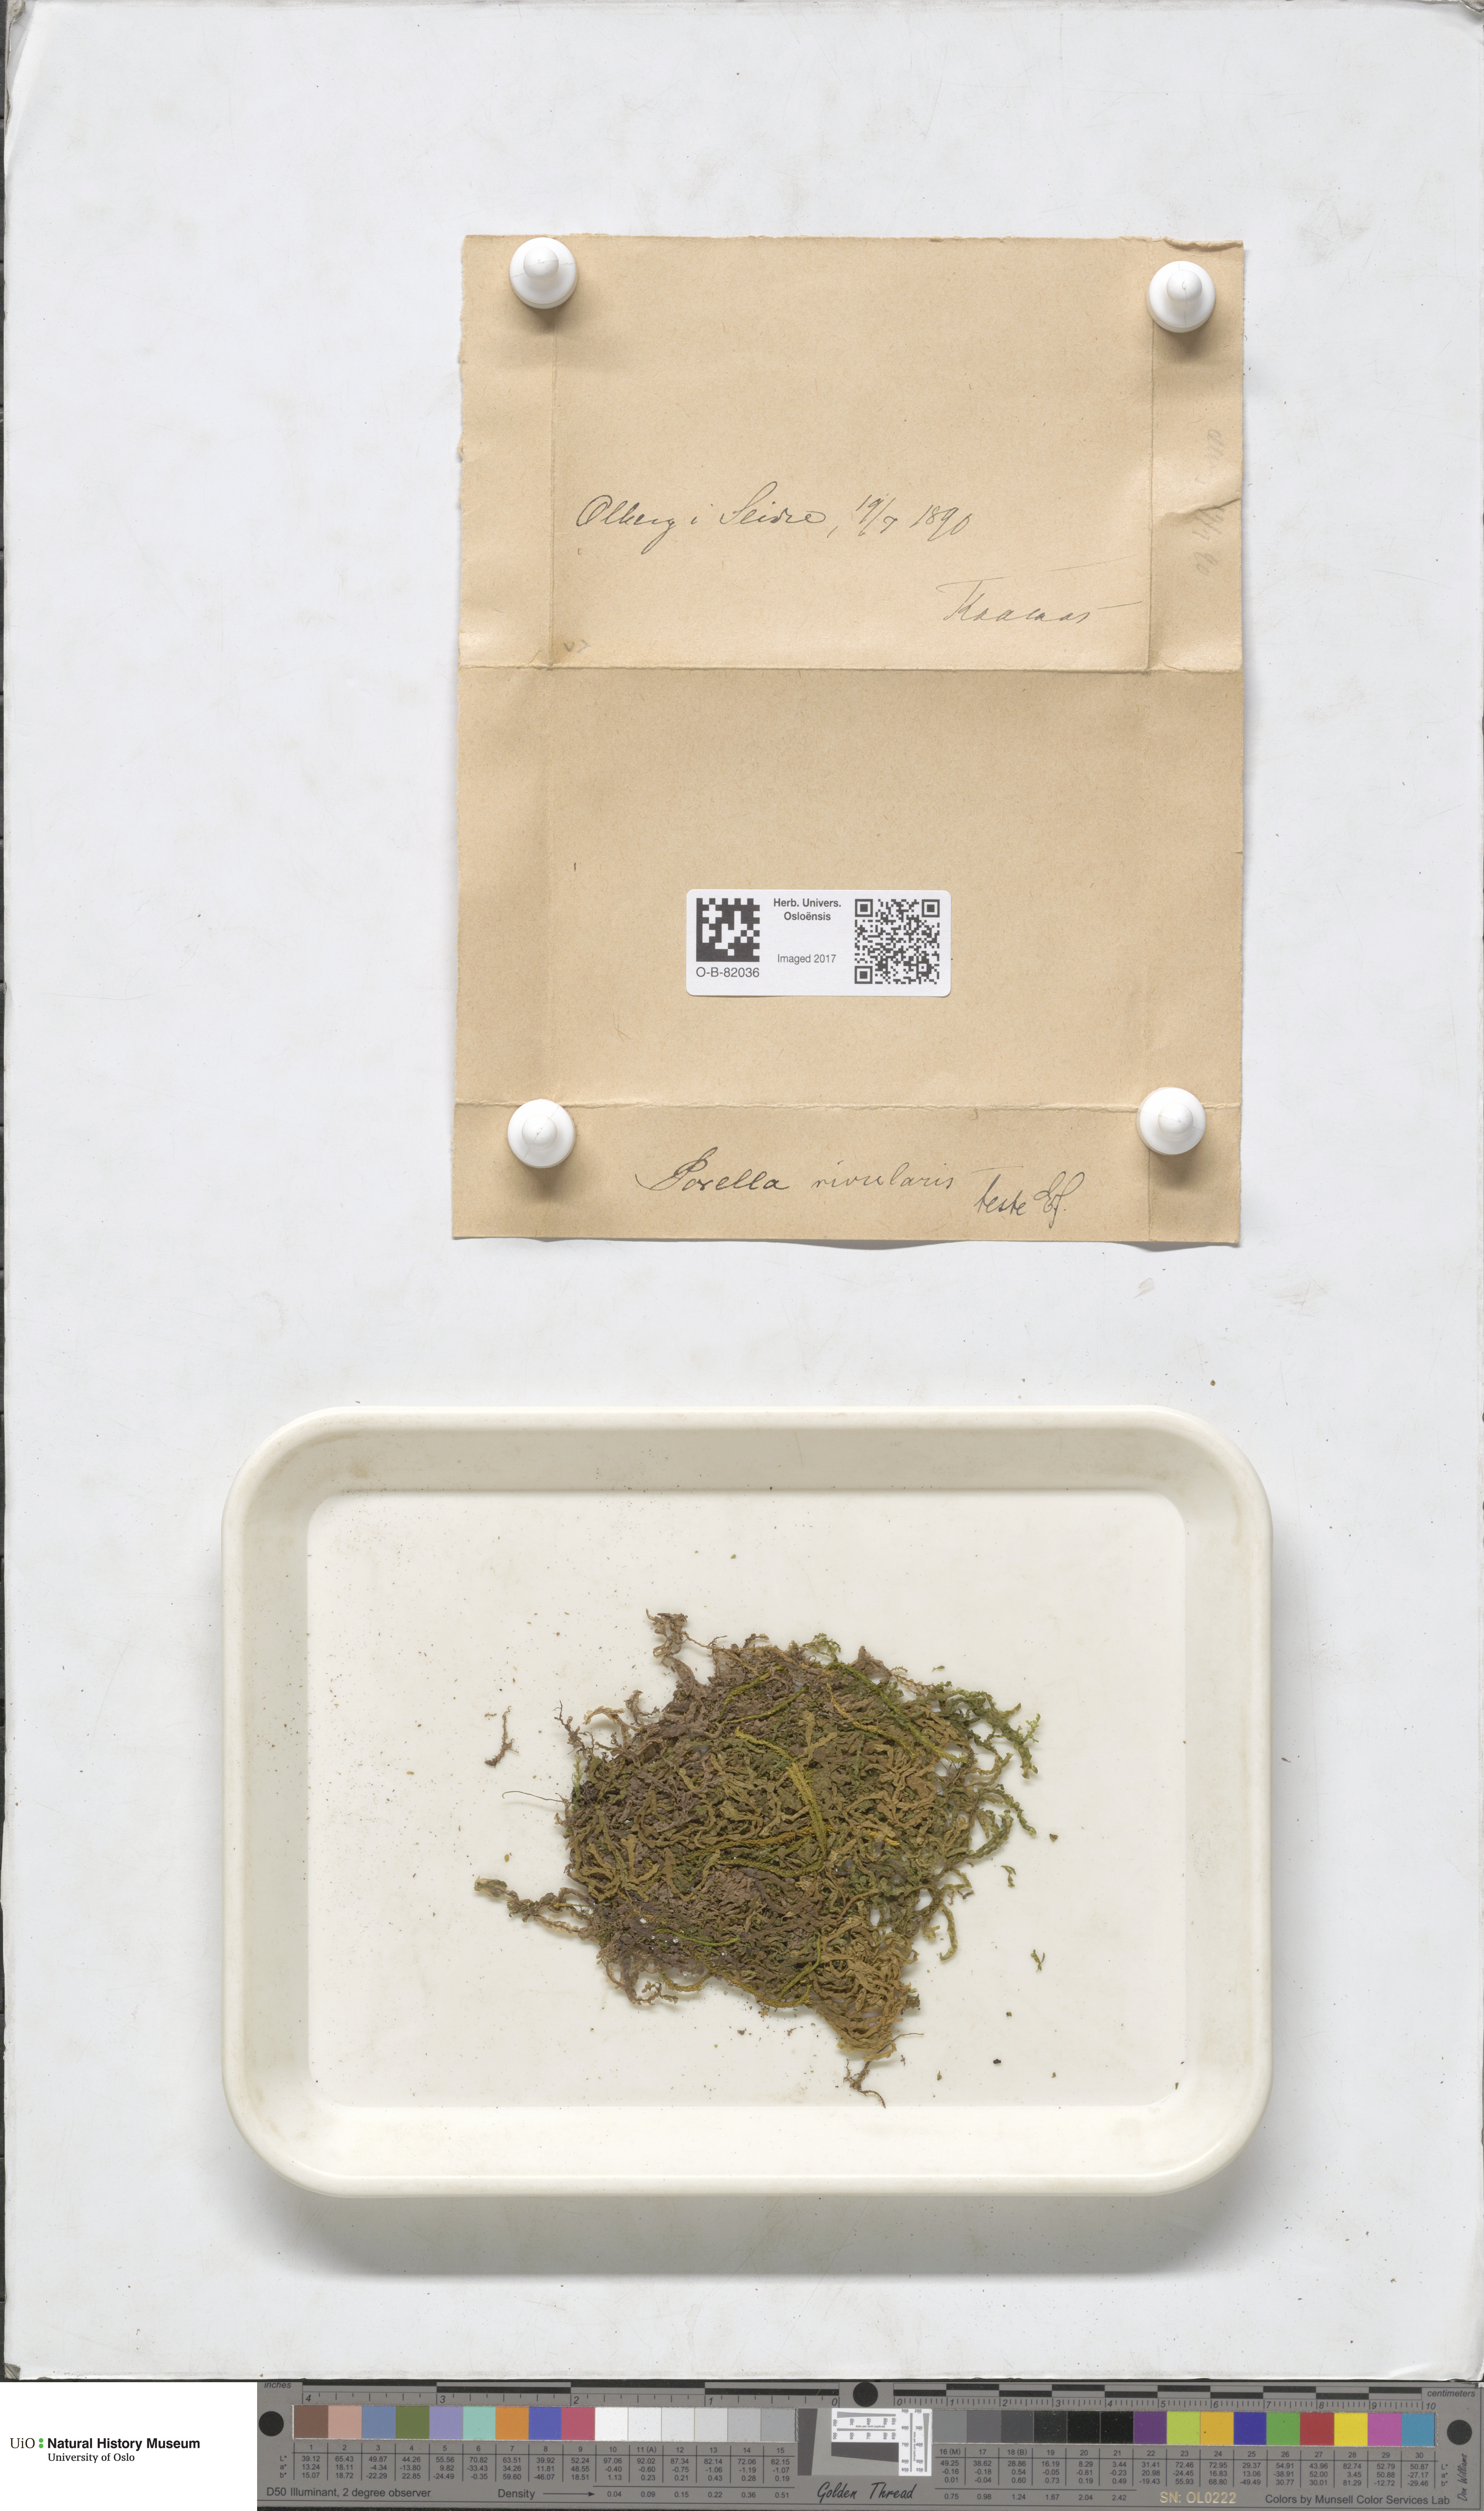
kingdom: Plantae
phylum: Marchantiophyta
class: Jungermanniopsida
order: Porellales
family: Porellaceae
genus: Porella
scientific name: Porella cordaeana
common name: Cliff scalewort
